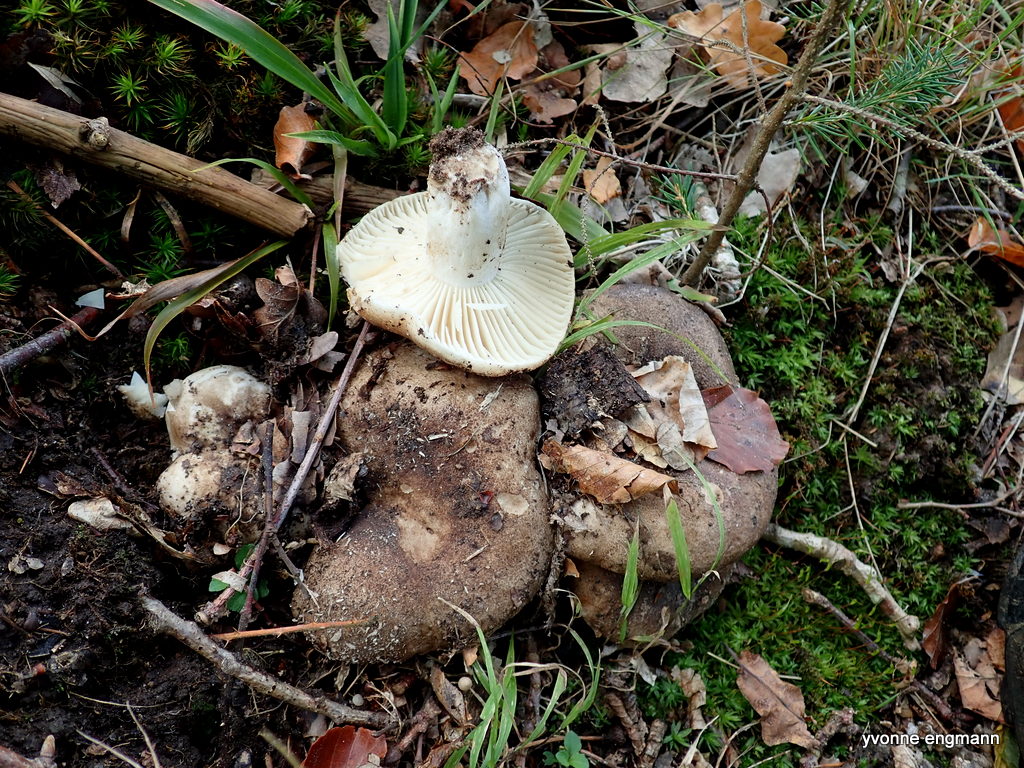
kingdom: Fungi
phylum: Basidiomycota
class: Agaricomycetes
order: Russulales
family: Russulaceae
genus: Russula
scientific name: Russula adusta
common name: sværtende skørhat
